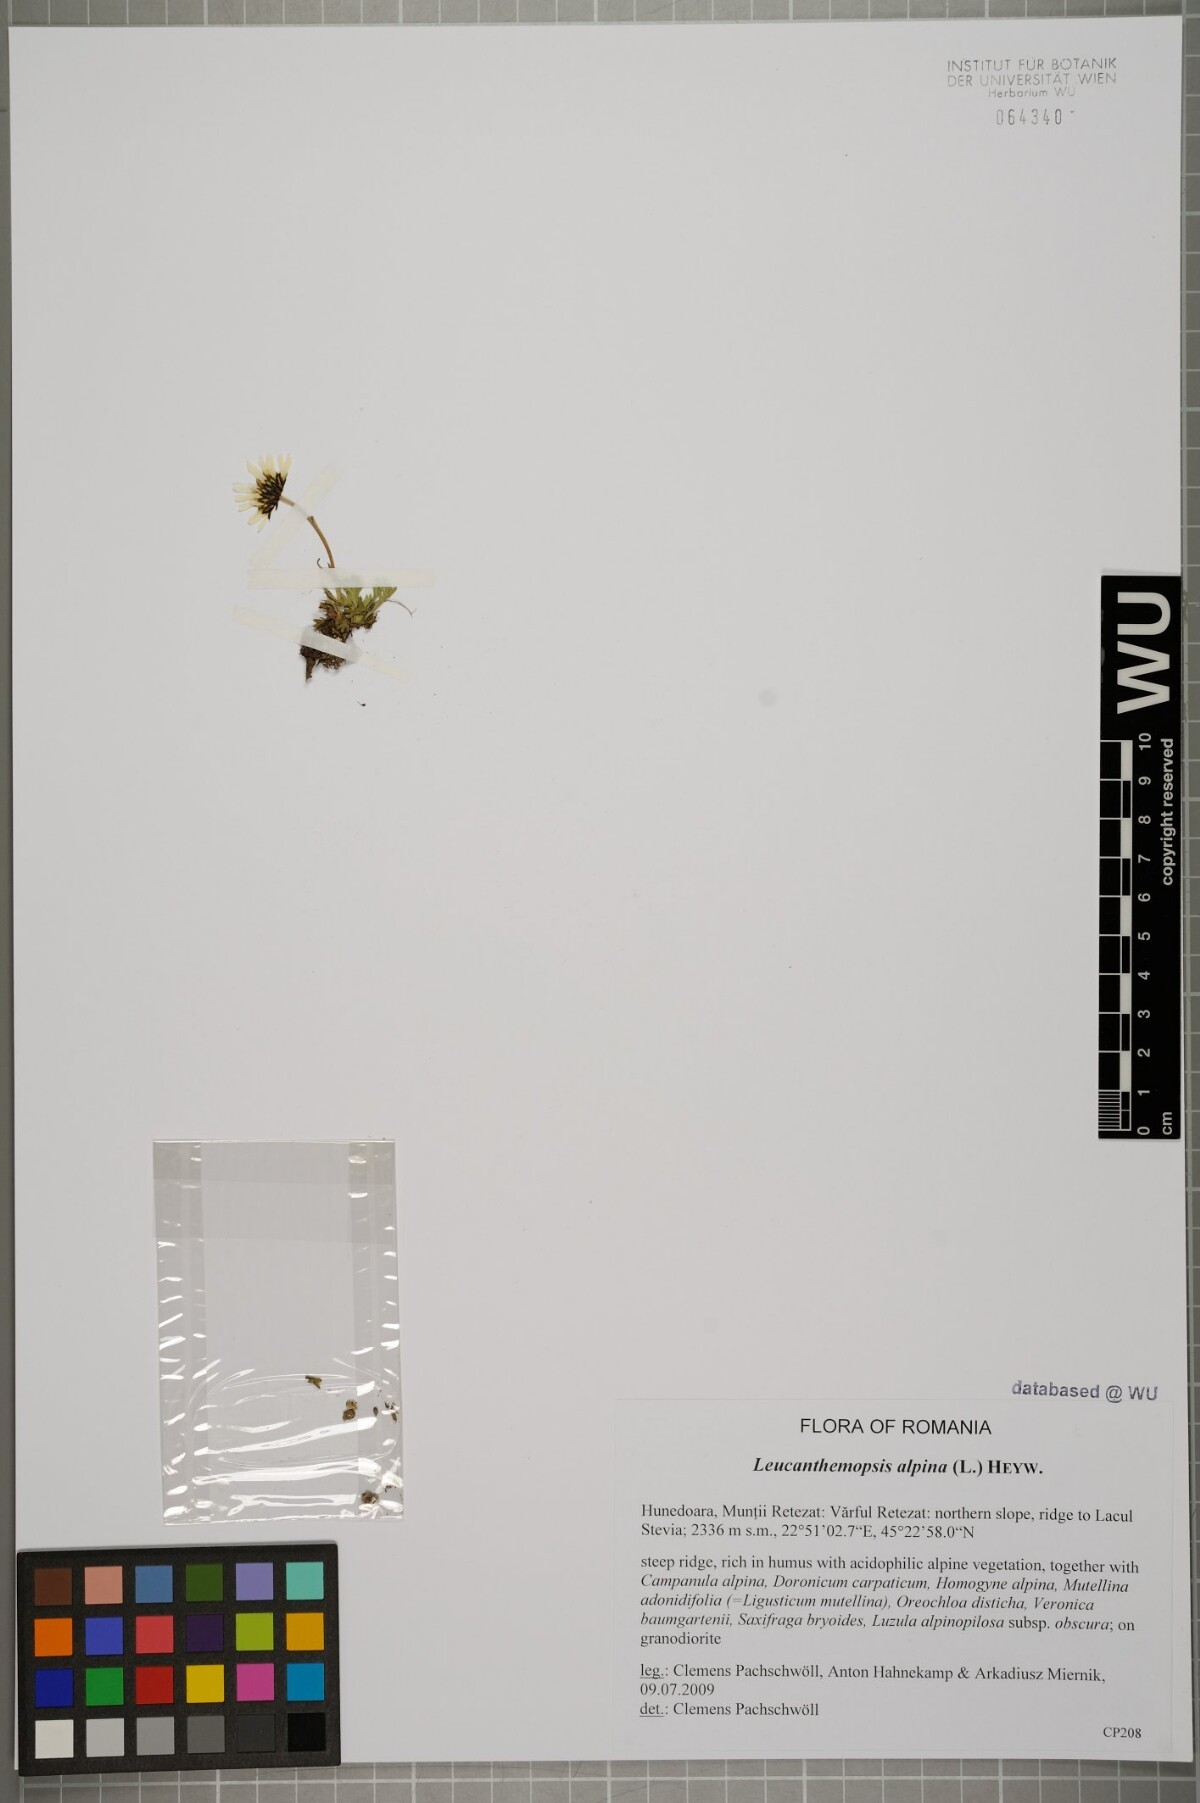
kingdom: Plantae
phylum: Tracheophyta
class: Magnoliopsida
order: Asterales
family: Asteraceae
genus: Leucanthemopsis
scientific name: Leucanthemopsis alpina
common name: Alpine moon daisy
